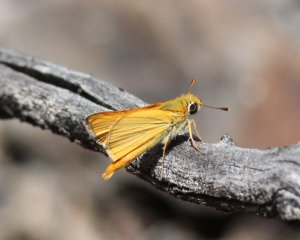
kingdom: Animalia
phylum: Arthropoda
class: Insecta
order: Lepidoptera
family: Hesperiidae
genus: Copaeodes
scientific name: Copaeodes aurantiaca
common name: Orange Skipperling
